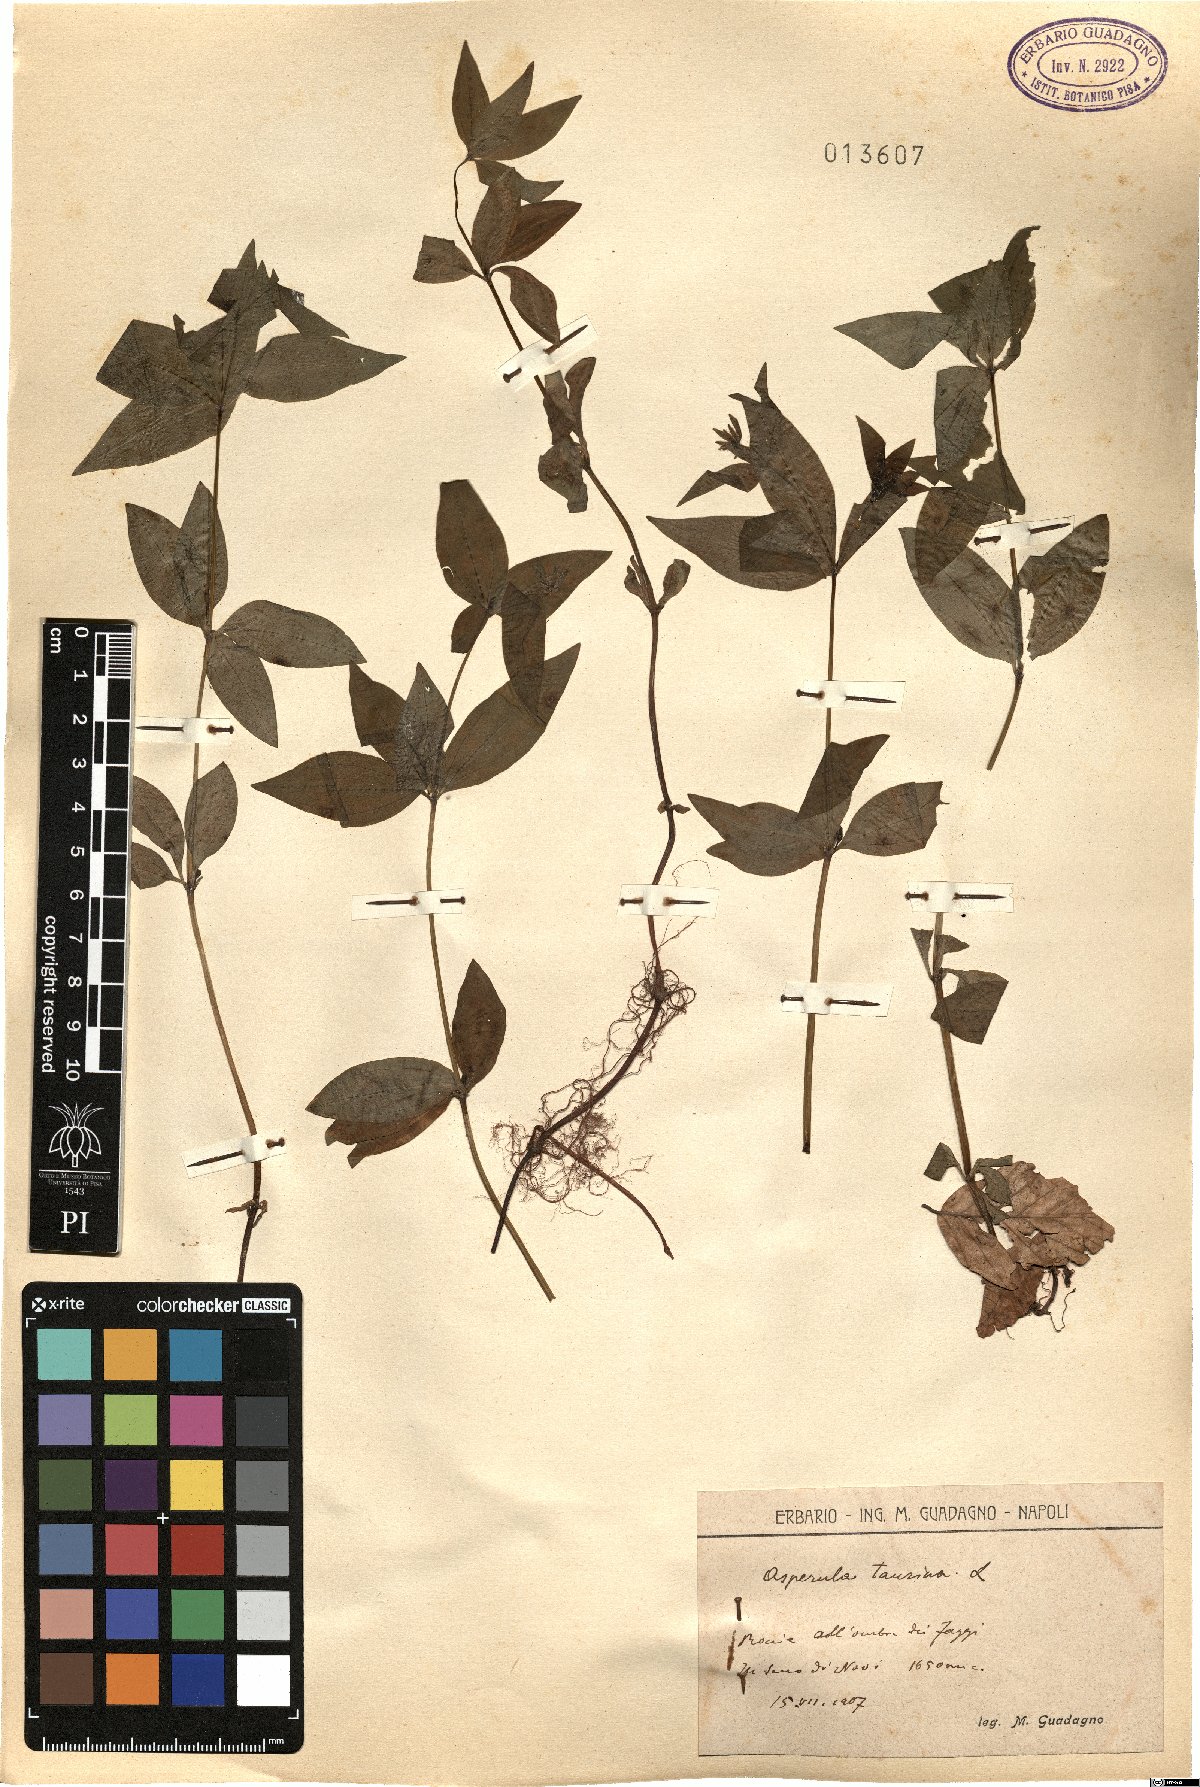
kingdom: Plantae
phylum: Tracheophyta
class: Magnoliopsida
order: Gentianales
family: Rubiaceae
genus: Asperula
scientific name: Asperula taurina
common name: Pink woodruff
